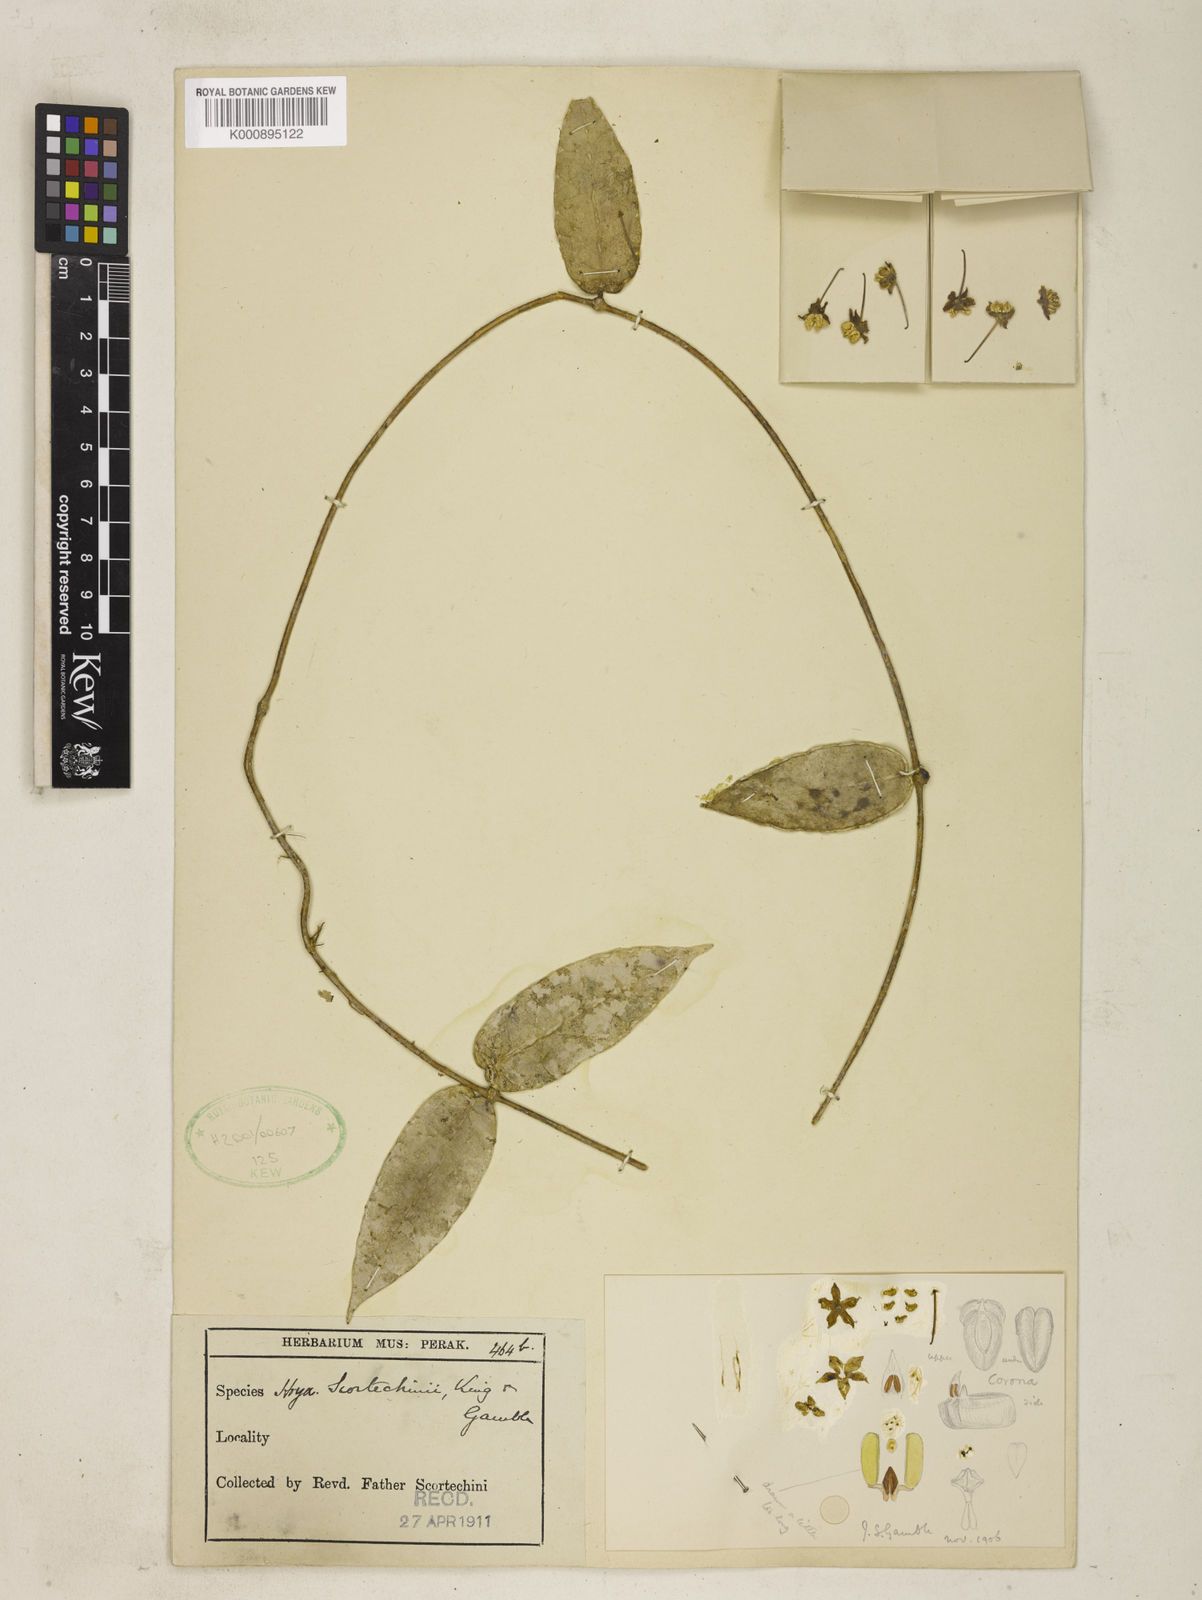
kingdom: Plantae
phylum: Tracheophyta
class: Magnoliopsida
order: Gentianales
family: Apocynaceae
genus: Hoya
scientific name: Hoya scortechinii
